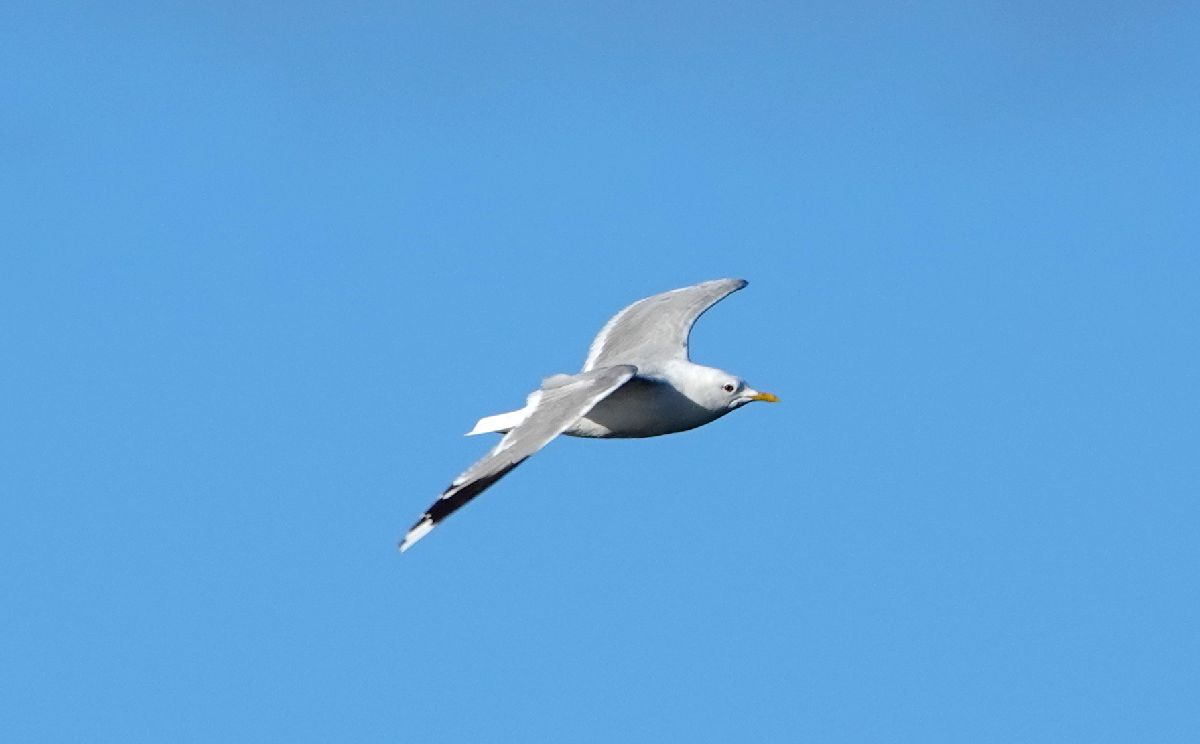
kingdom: Animalia
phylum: Chordata
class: Aves
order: Charadriiformes
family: Laridae
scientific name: Laridae
